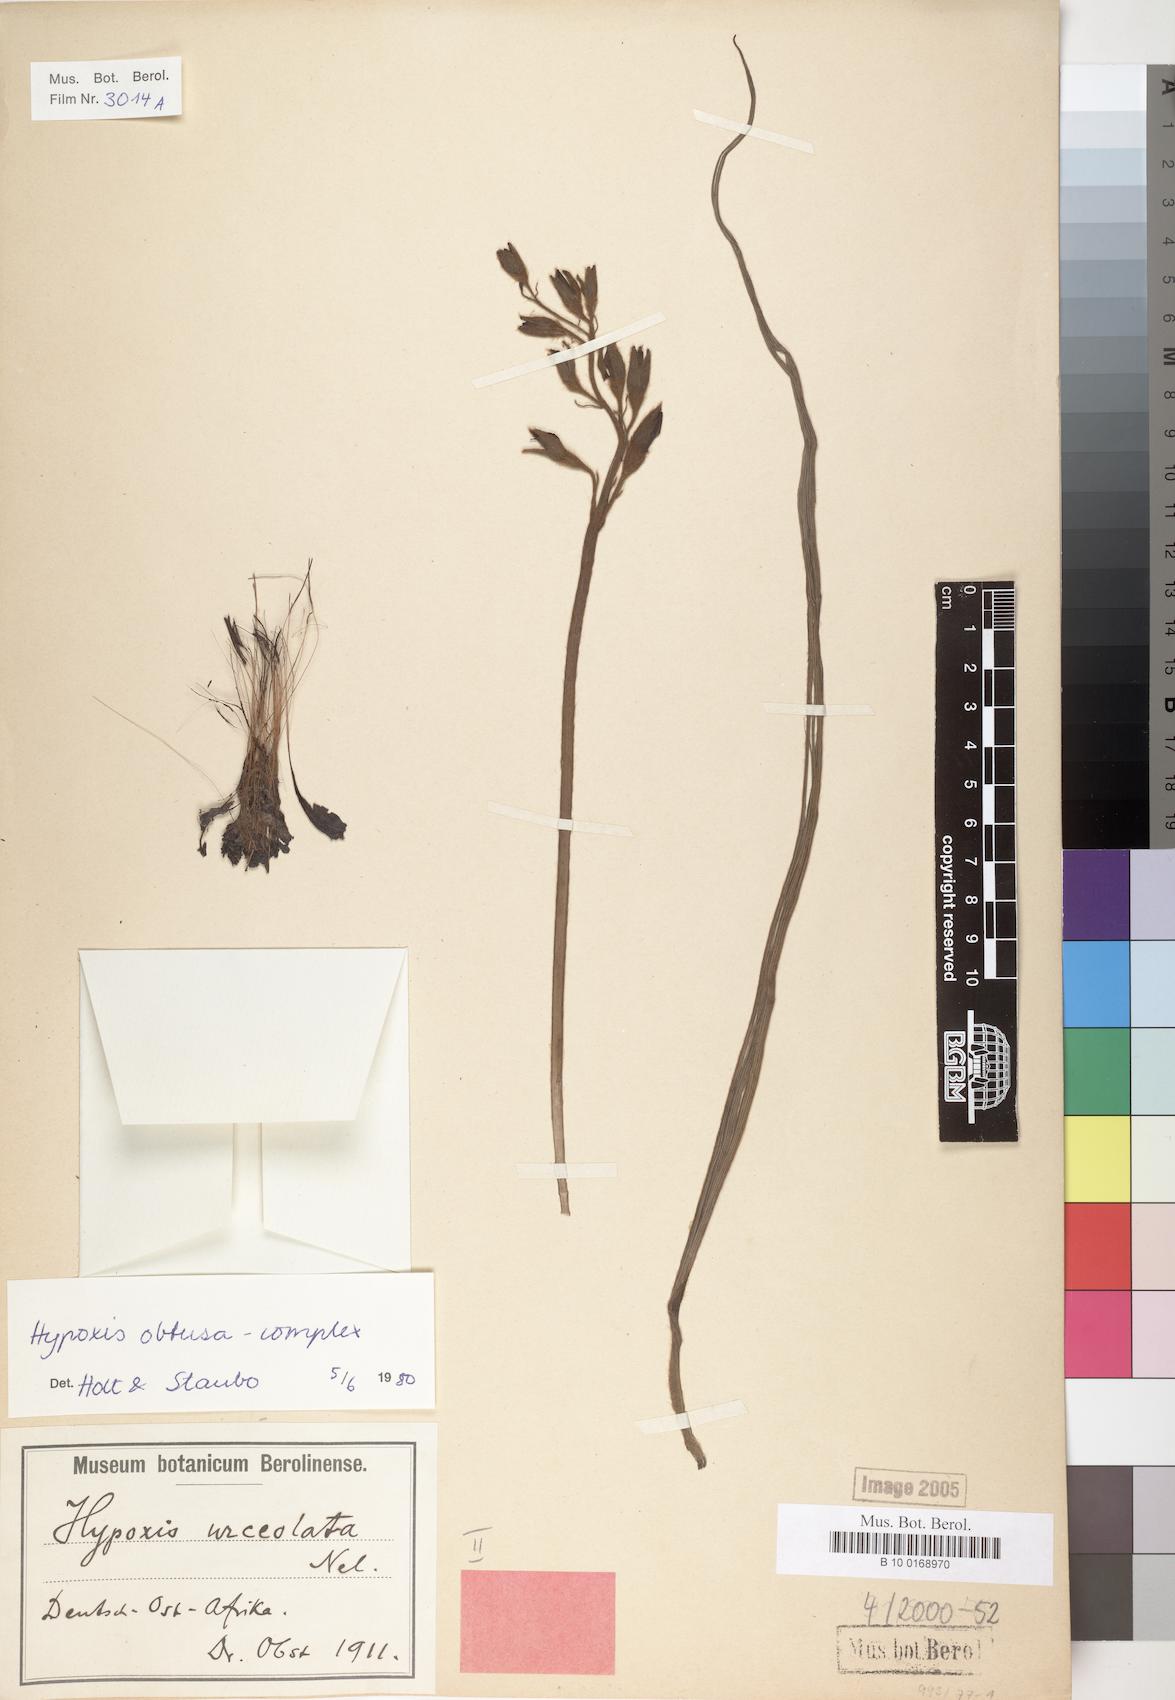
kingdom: Plantae
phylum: Tracheophyta
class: Liliopsida
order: Asparagales
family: Hypoxidaceae
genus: Hypoxis
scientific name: Hypoxis
